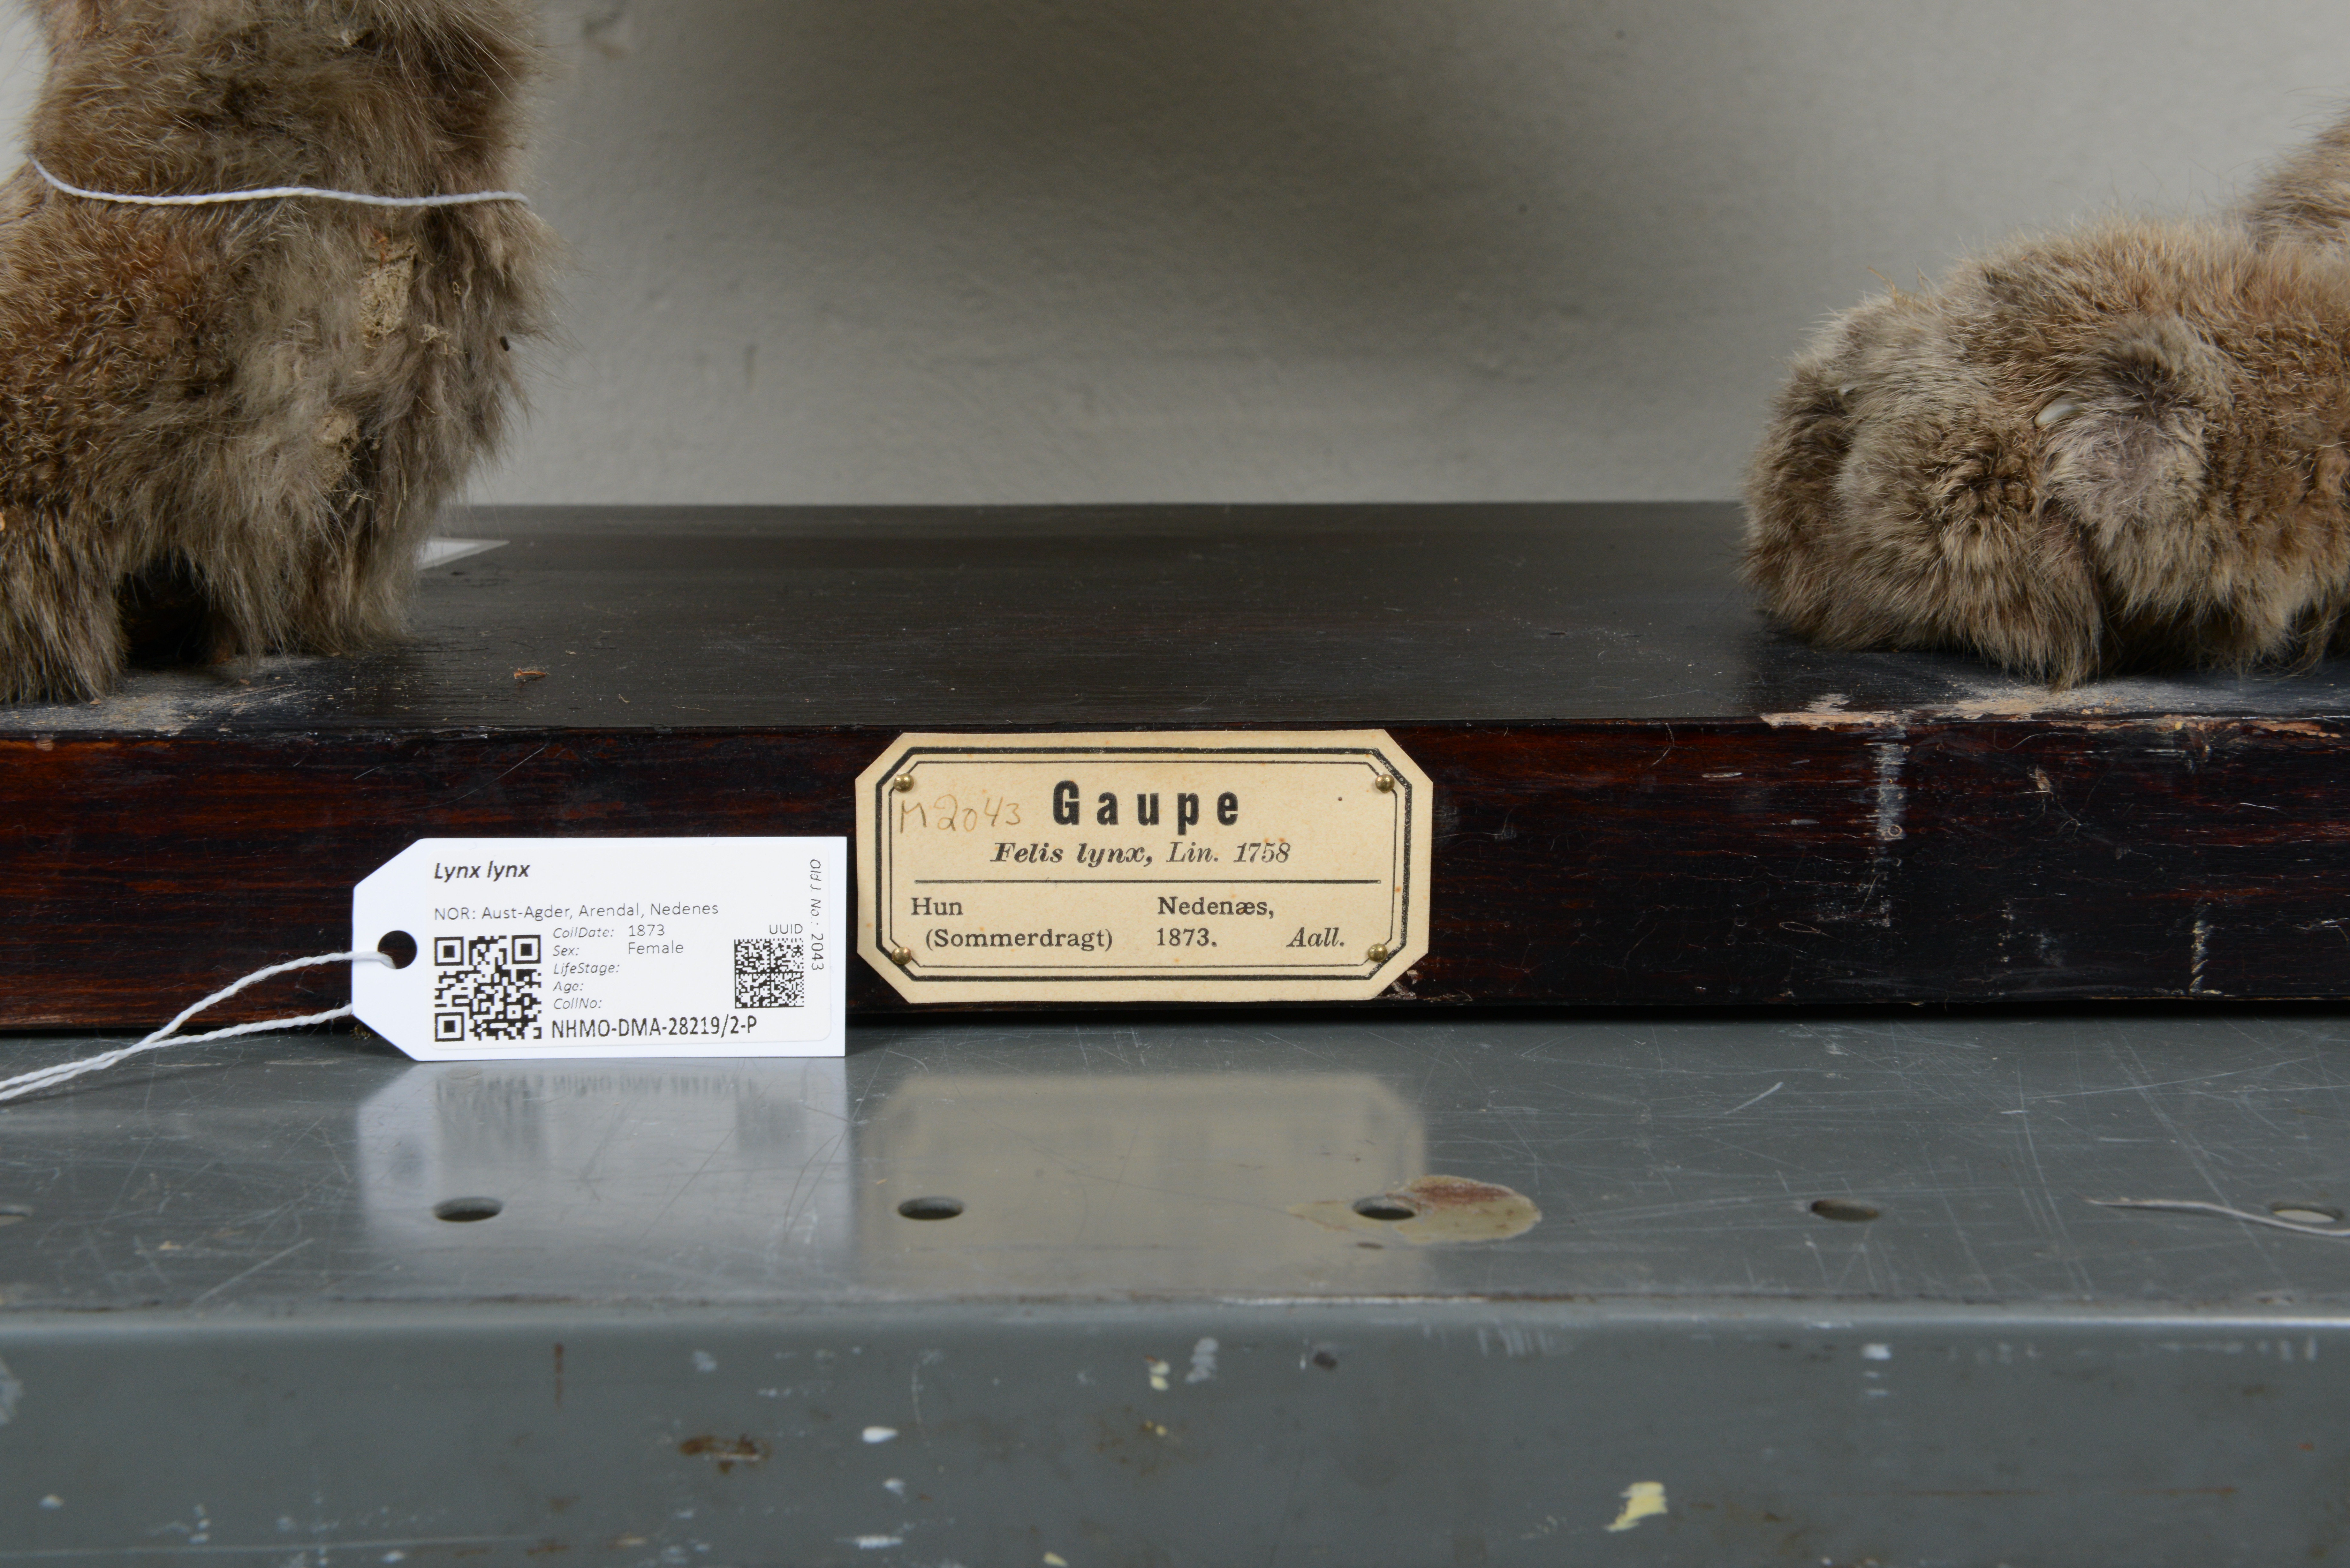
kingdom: Animalia
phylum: Chordata
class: Mammalia
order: Carnivora
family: Felidae
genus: Lynx
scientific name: Lynx lynx
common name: Eurasian lynx
